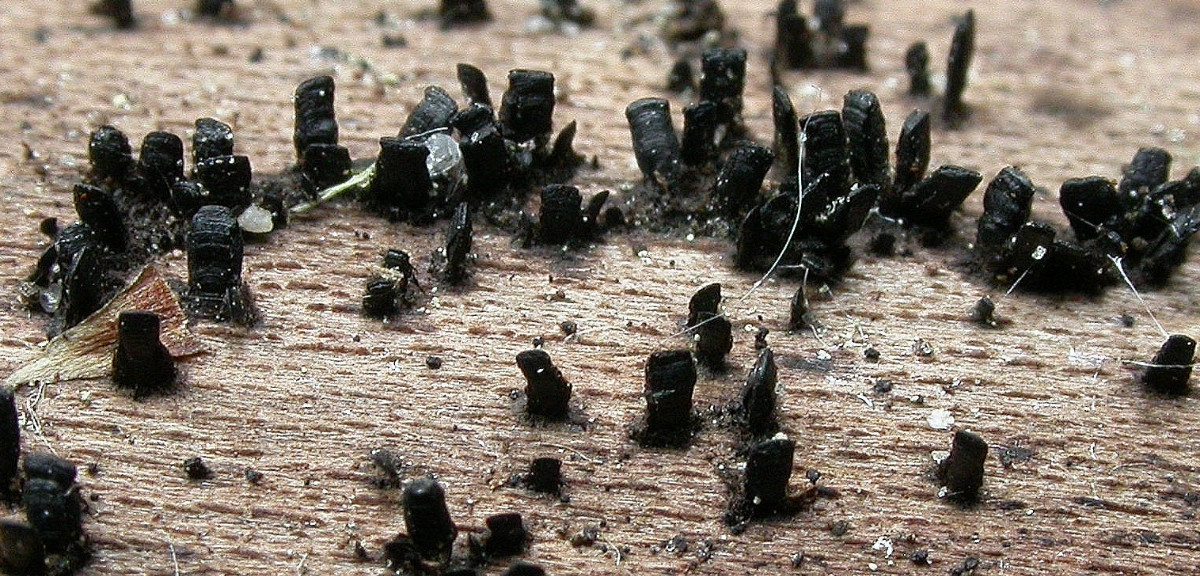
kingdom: Fungi
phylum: Ascomycota
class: Eurotiomycetes
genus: Glyphium
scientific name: Glyphium elatum
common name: kuløkse
